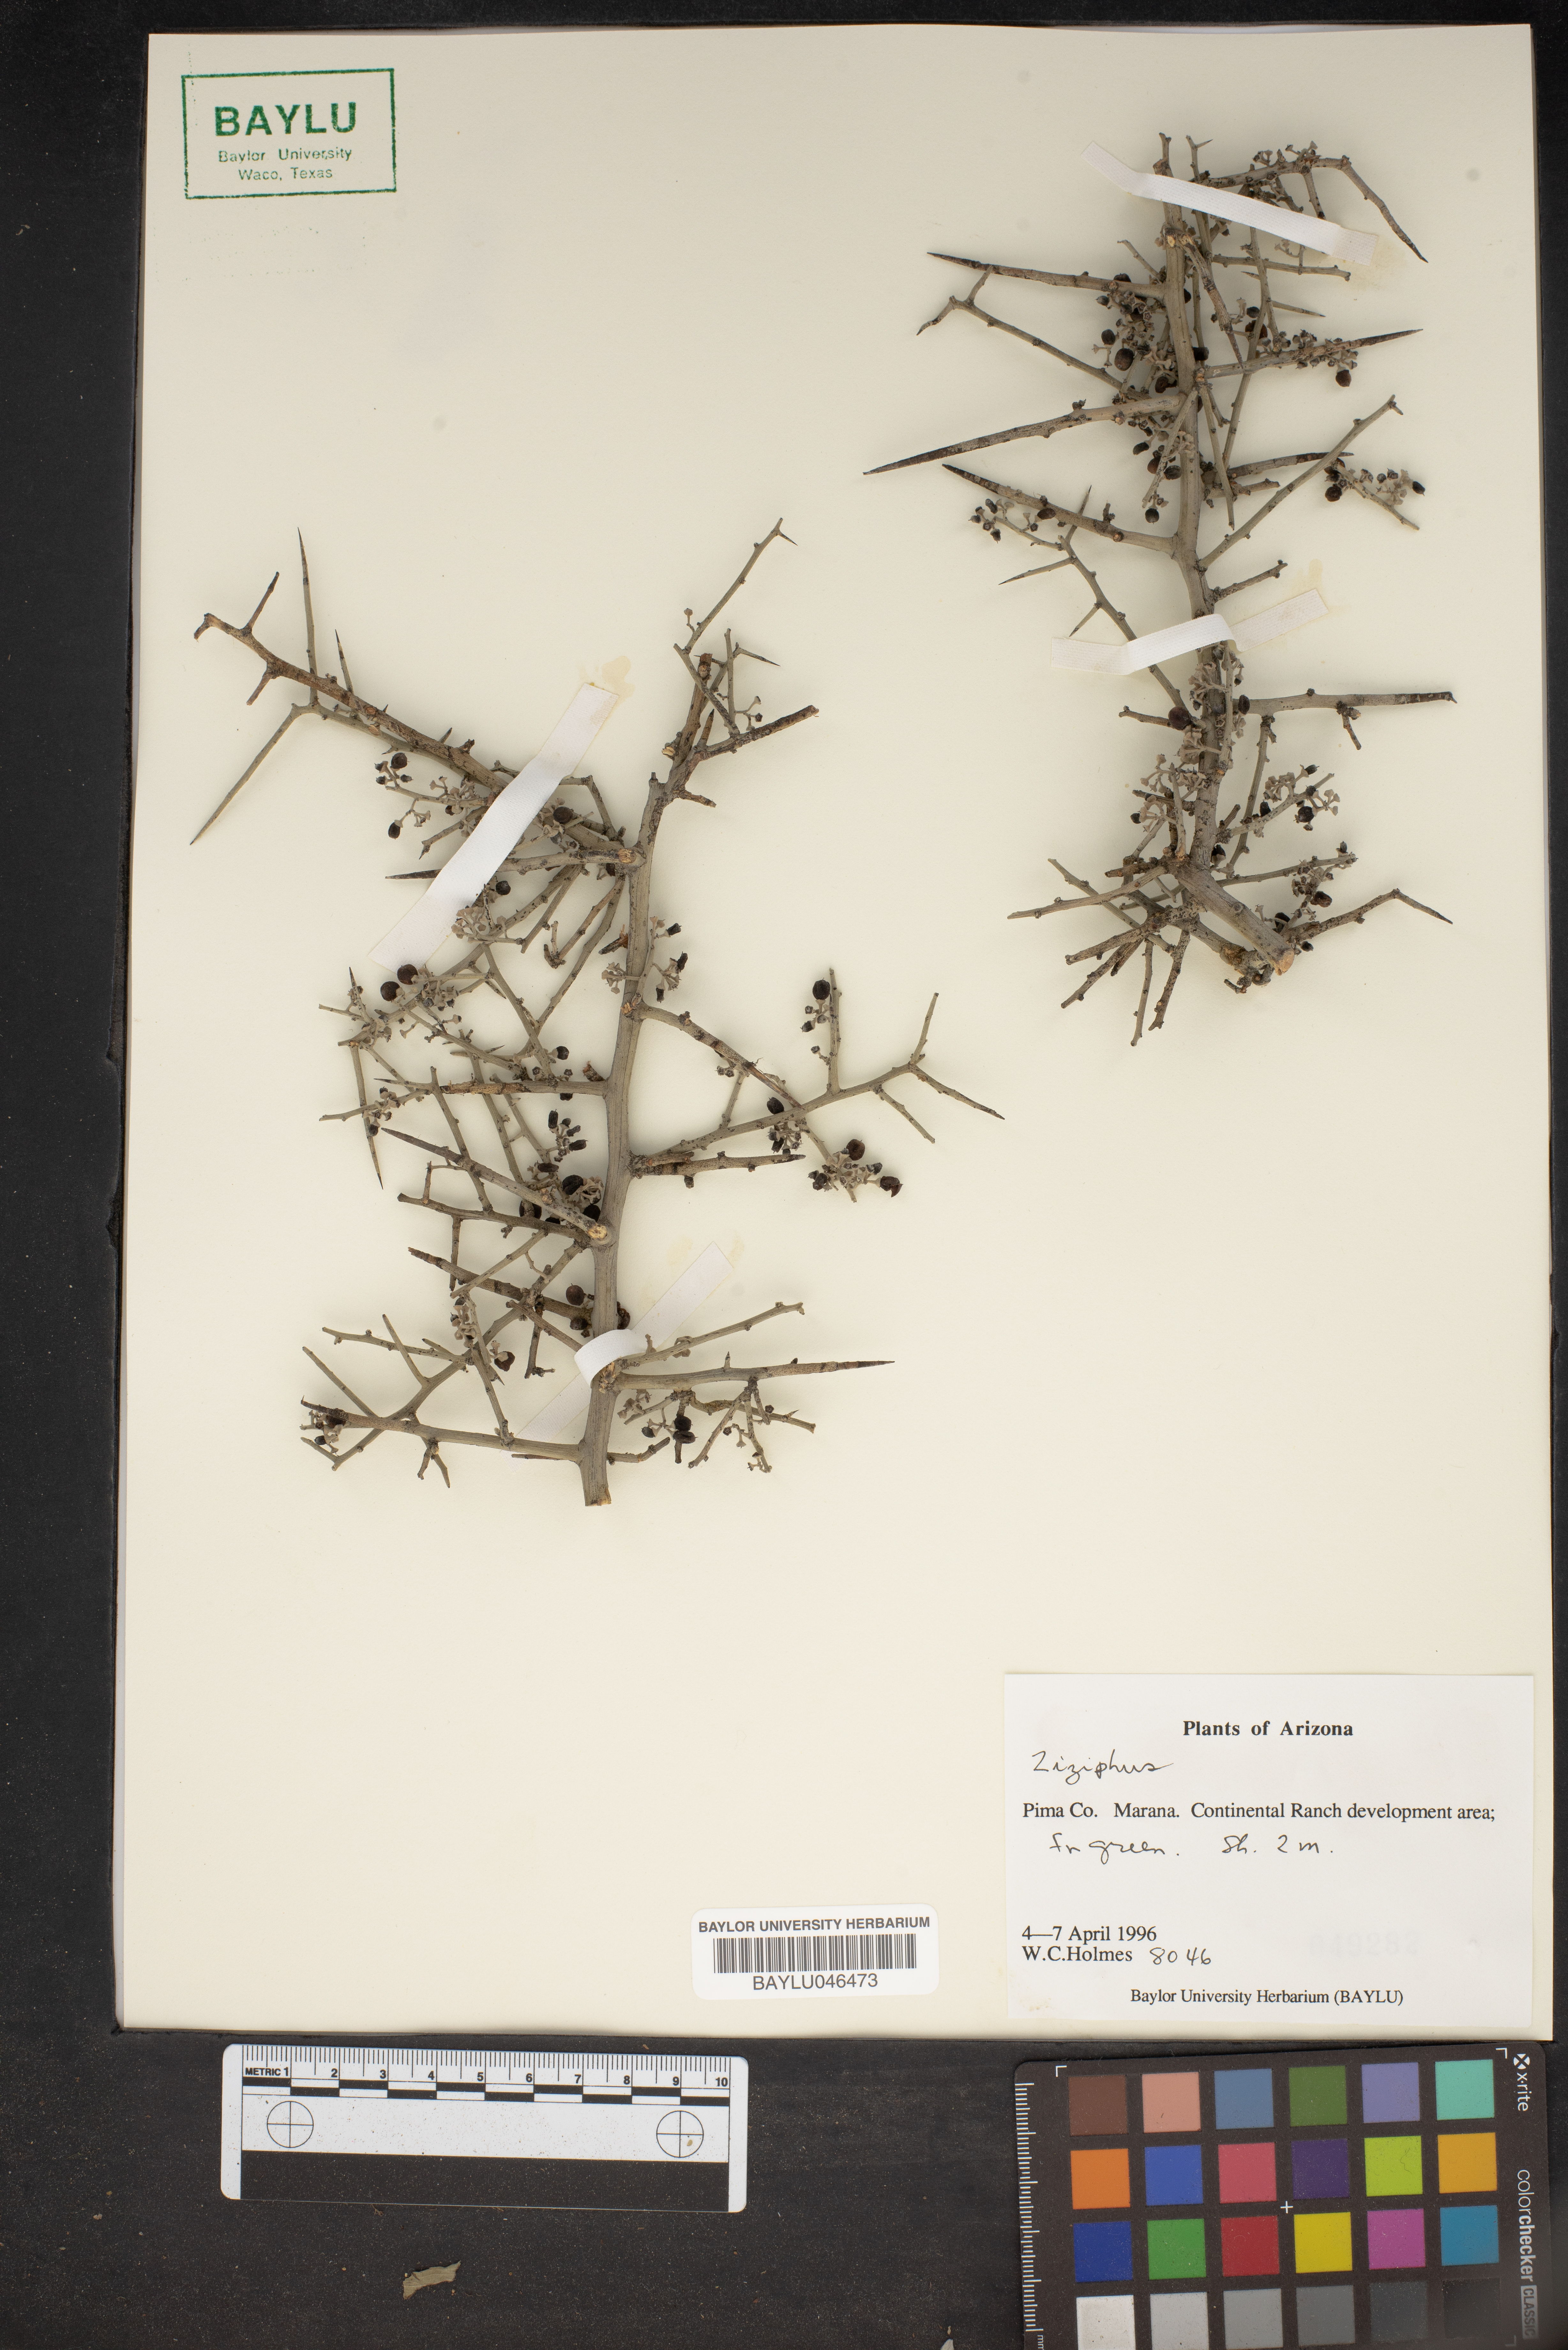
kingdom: Plantae
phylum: Tracheophyta
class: Magnoliopsida
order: Rosales
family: Rhamnaceae
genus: Ziziphus
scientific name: Ziziphus
